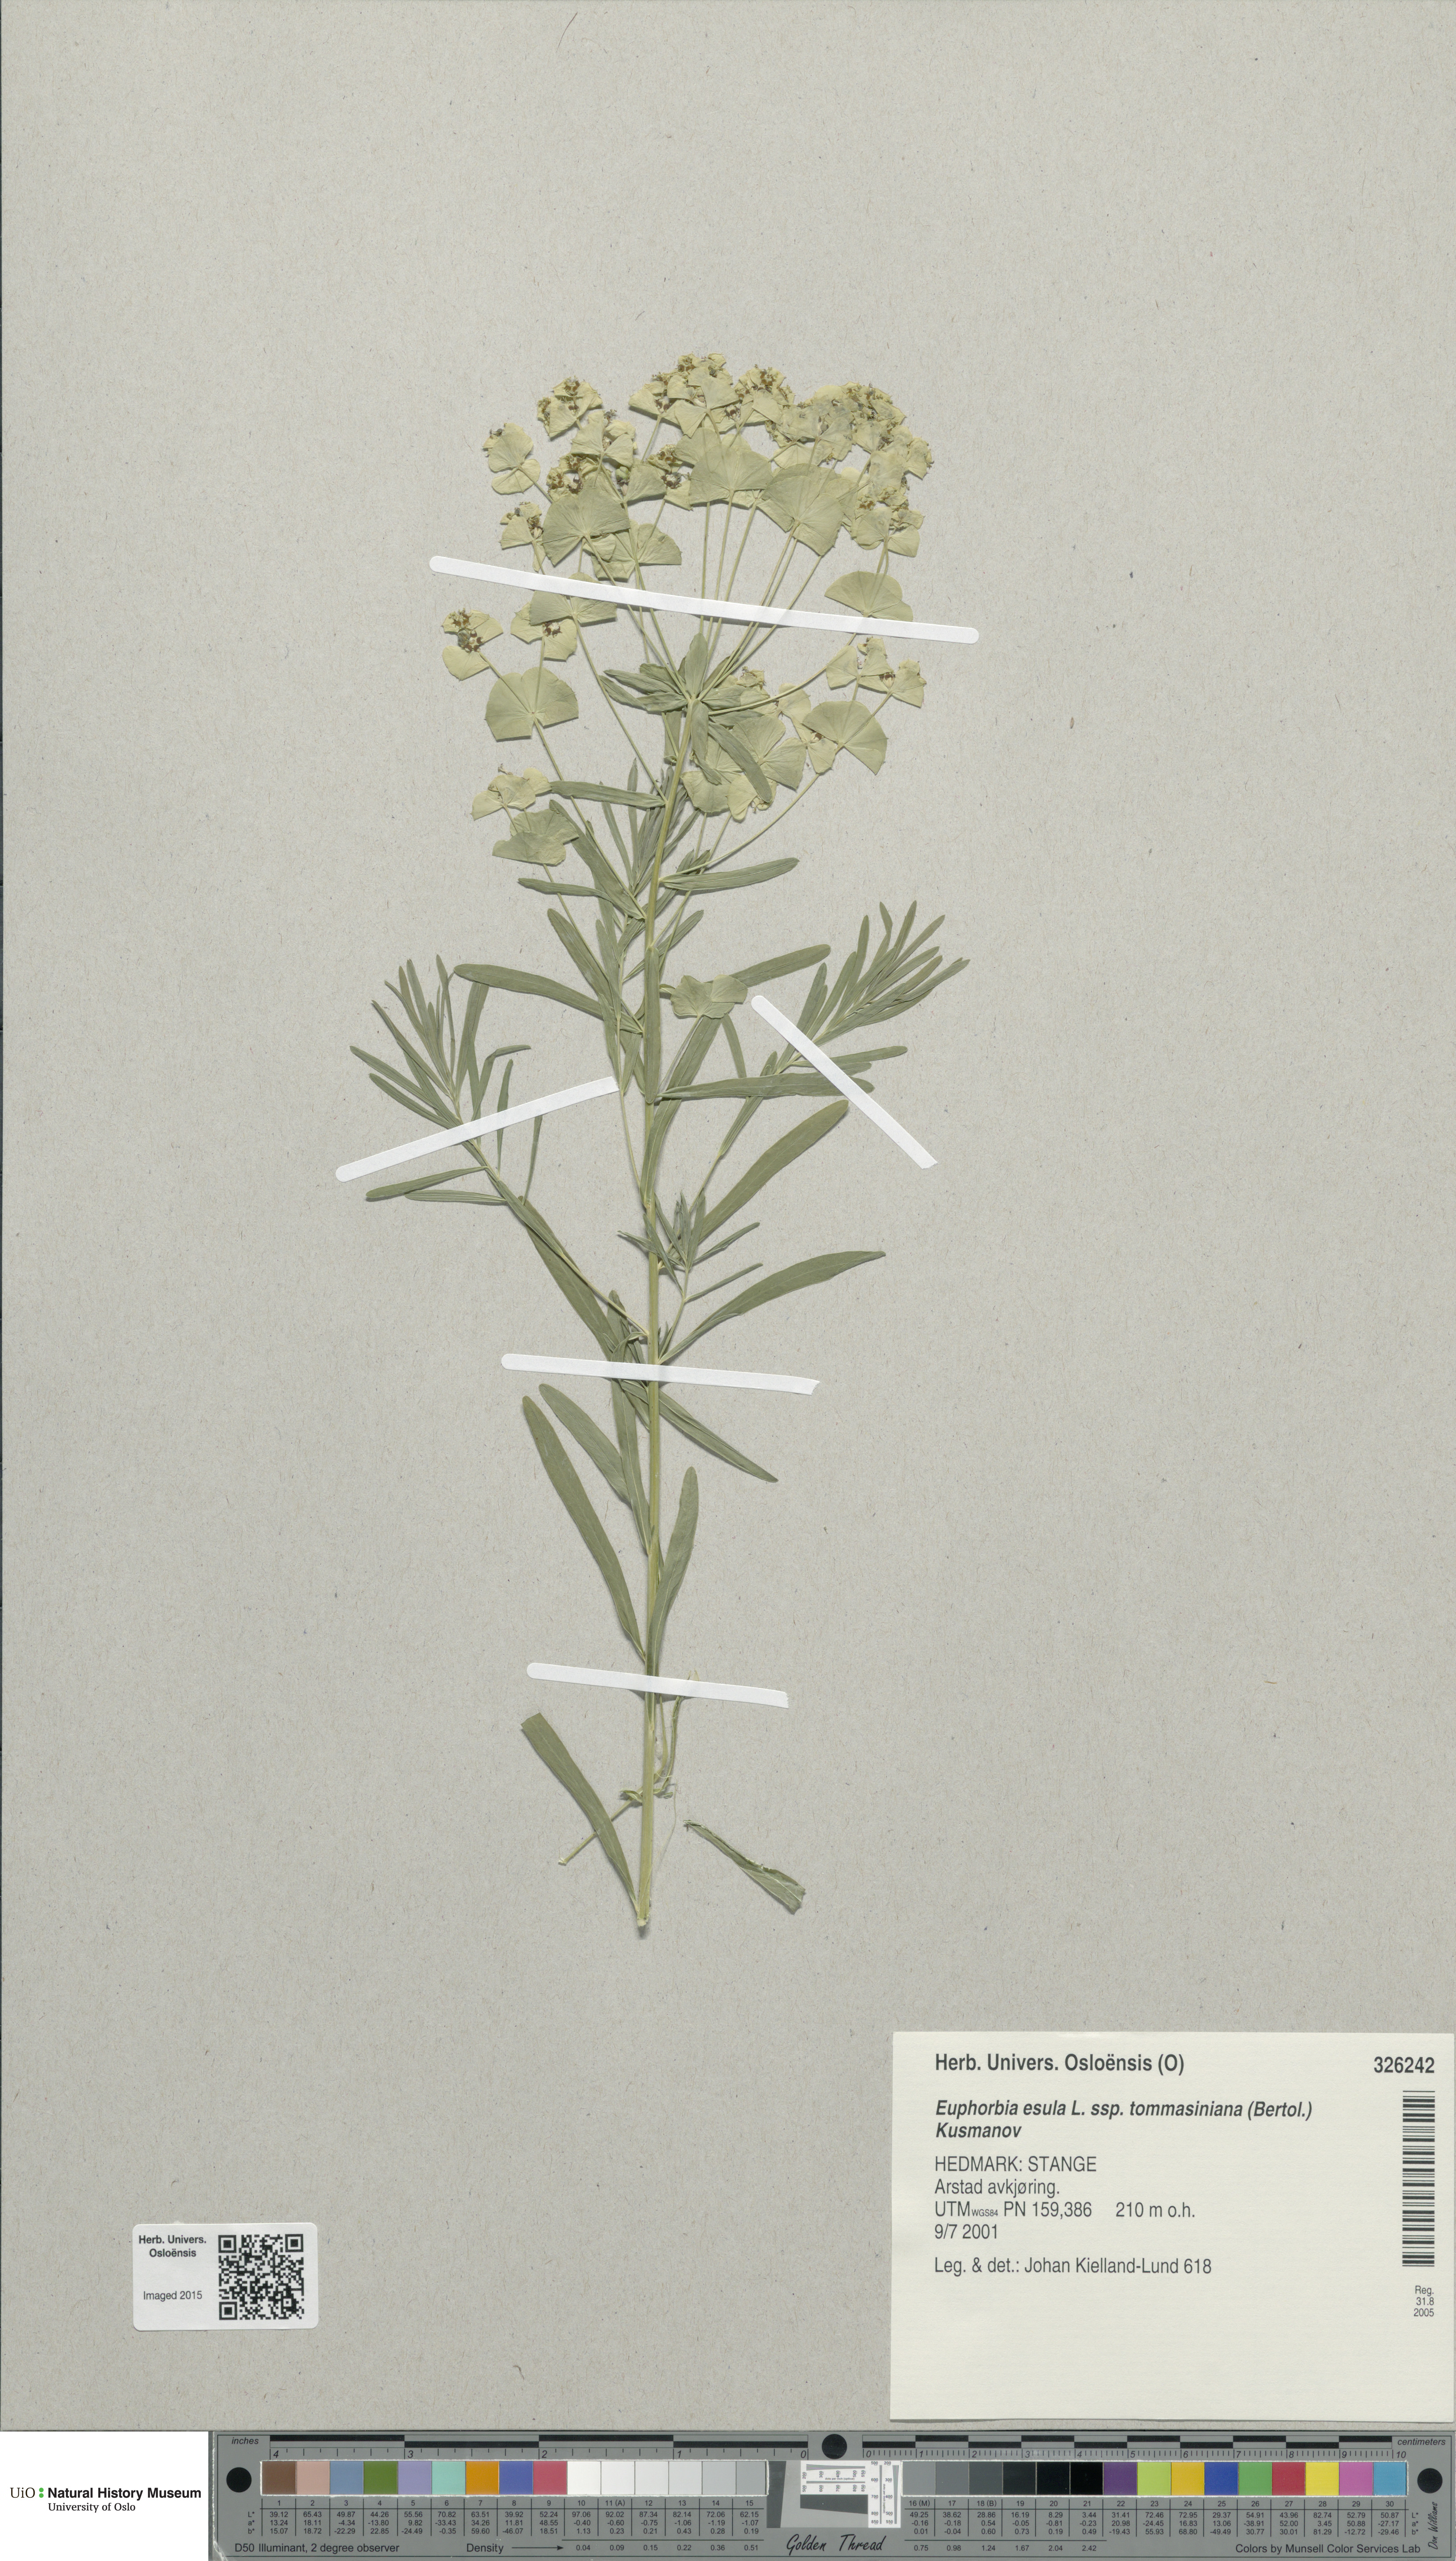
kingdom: Plantae
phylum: Tracheophyta
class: Magnoliopsida
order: Malpighiales
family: Euphorbiaceae
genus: Euphorbia
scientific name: Euphorbia tommasiniana
